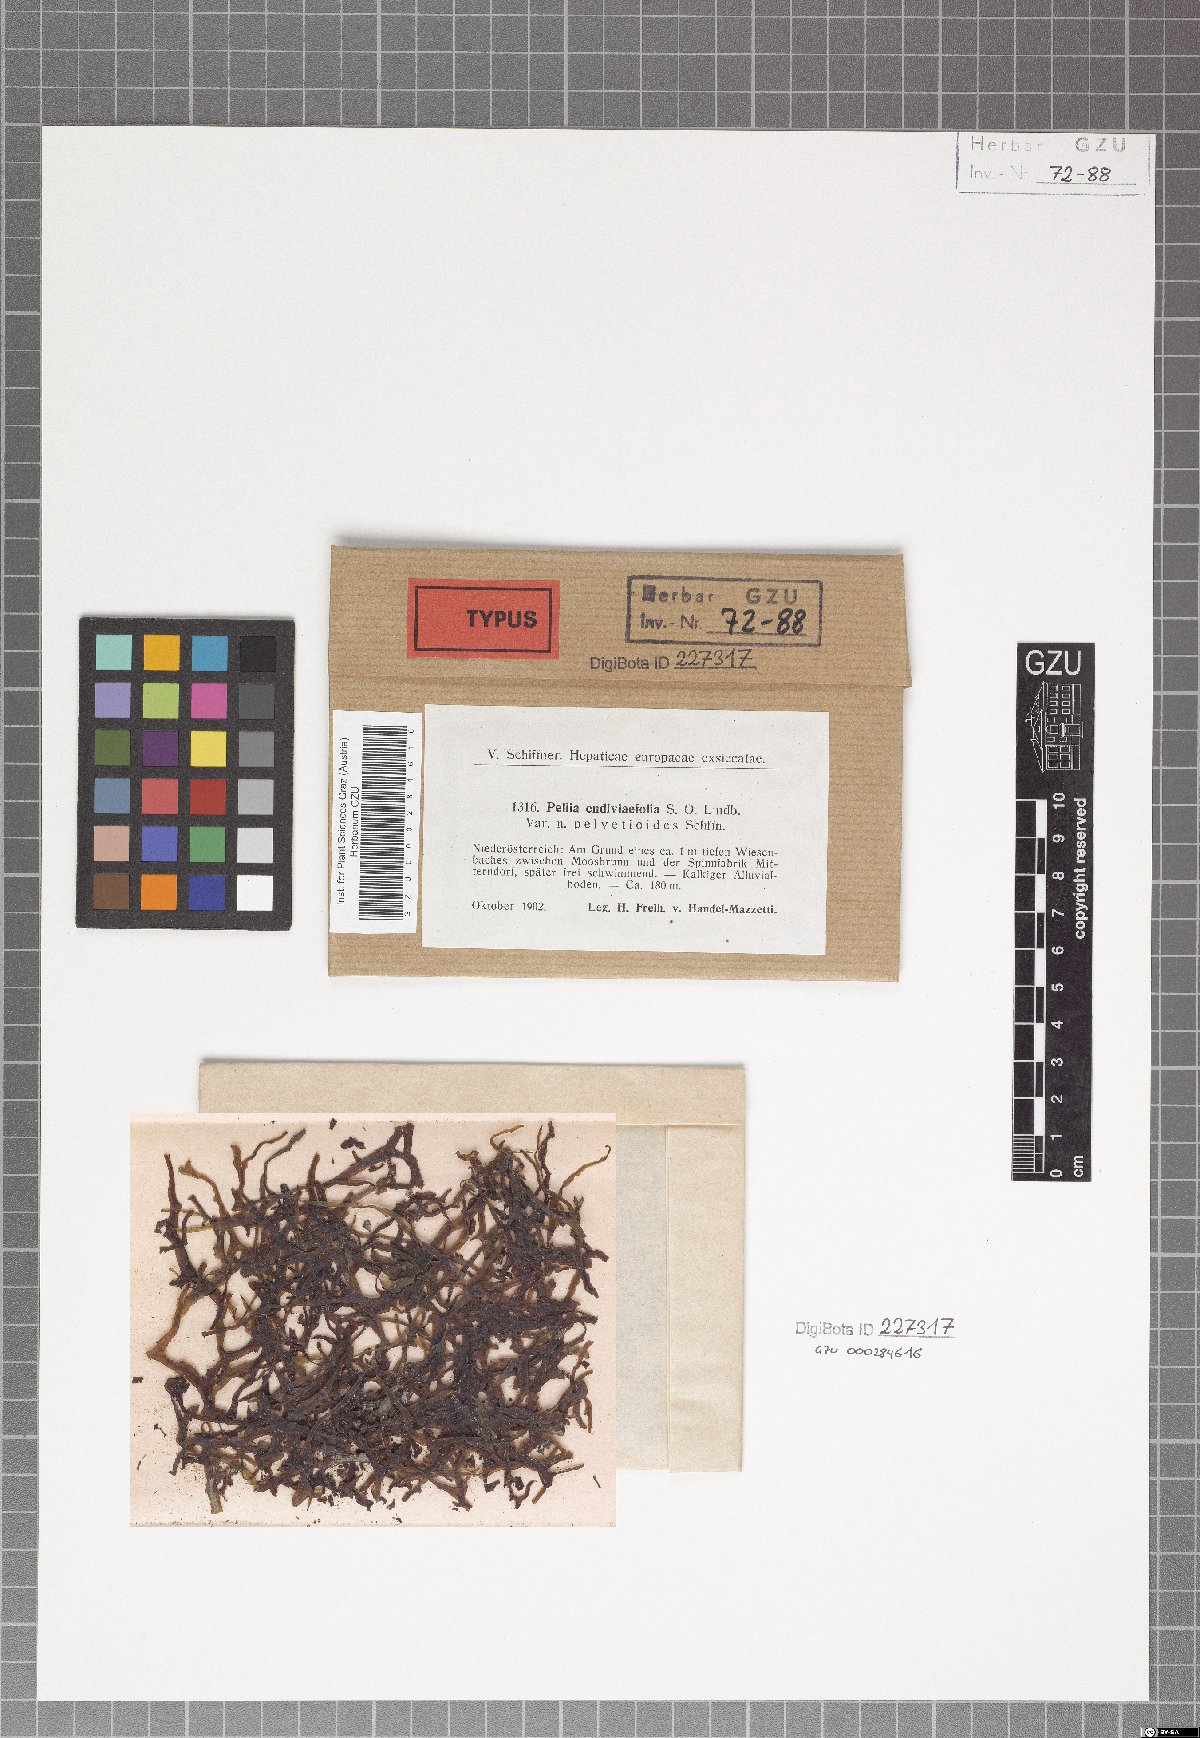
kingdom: Plantae
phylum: Marchantiophyta
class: Jungermanniopsida
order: Pelliales
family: Pelliaceae
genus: Apopellia
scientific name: Apopellia endiviifolia
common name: Endive pellia
